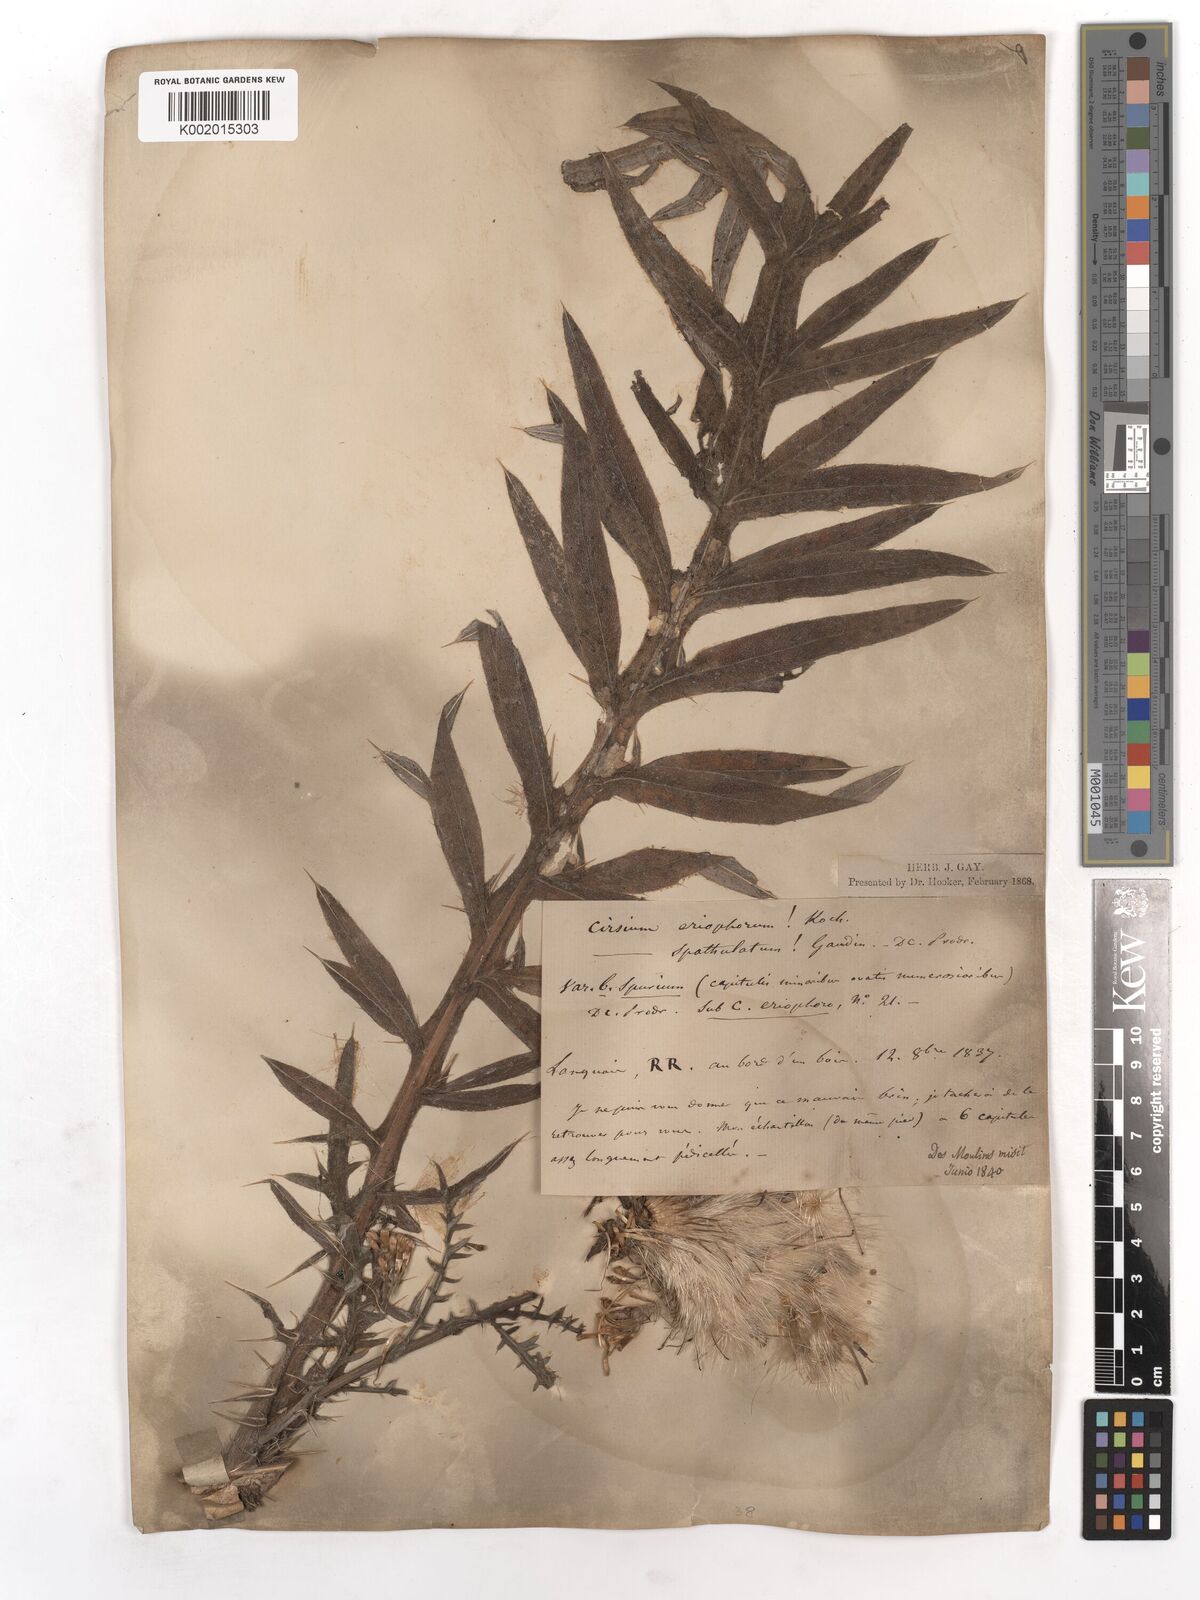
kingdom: Plantae
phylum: Tracheophyta
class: Magnoliopsida
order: Asterales
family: Asteraceae
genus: Lophiolepis
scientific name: Lophiolepis eriophora
